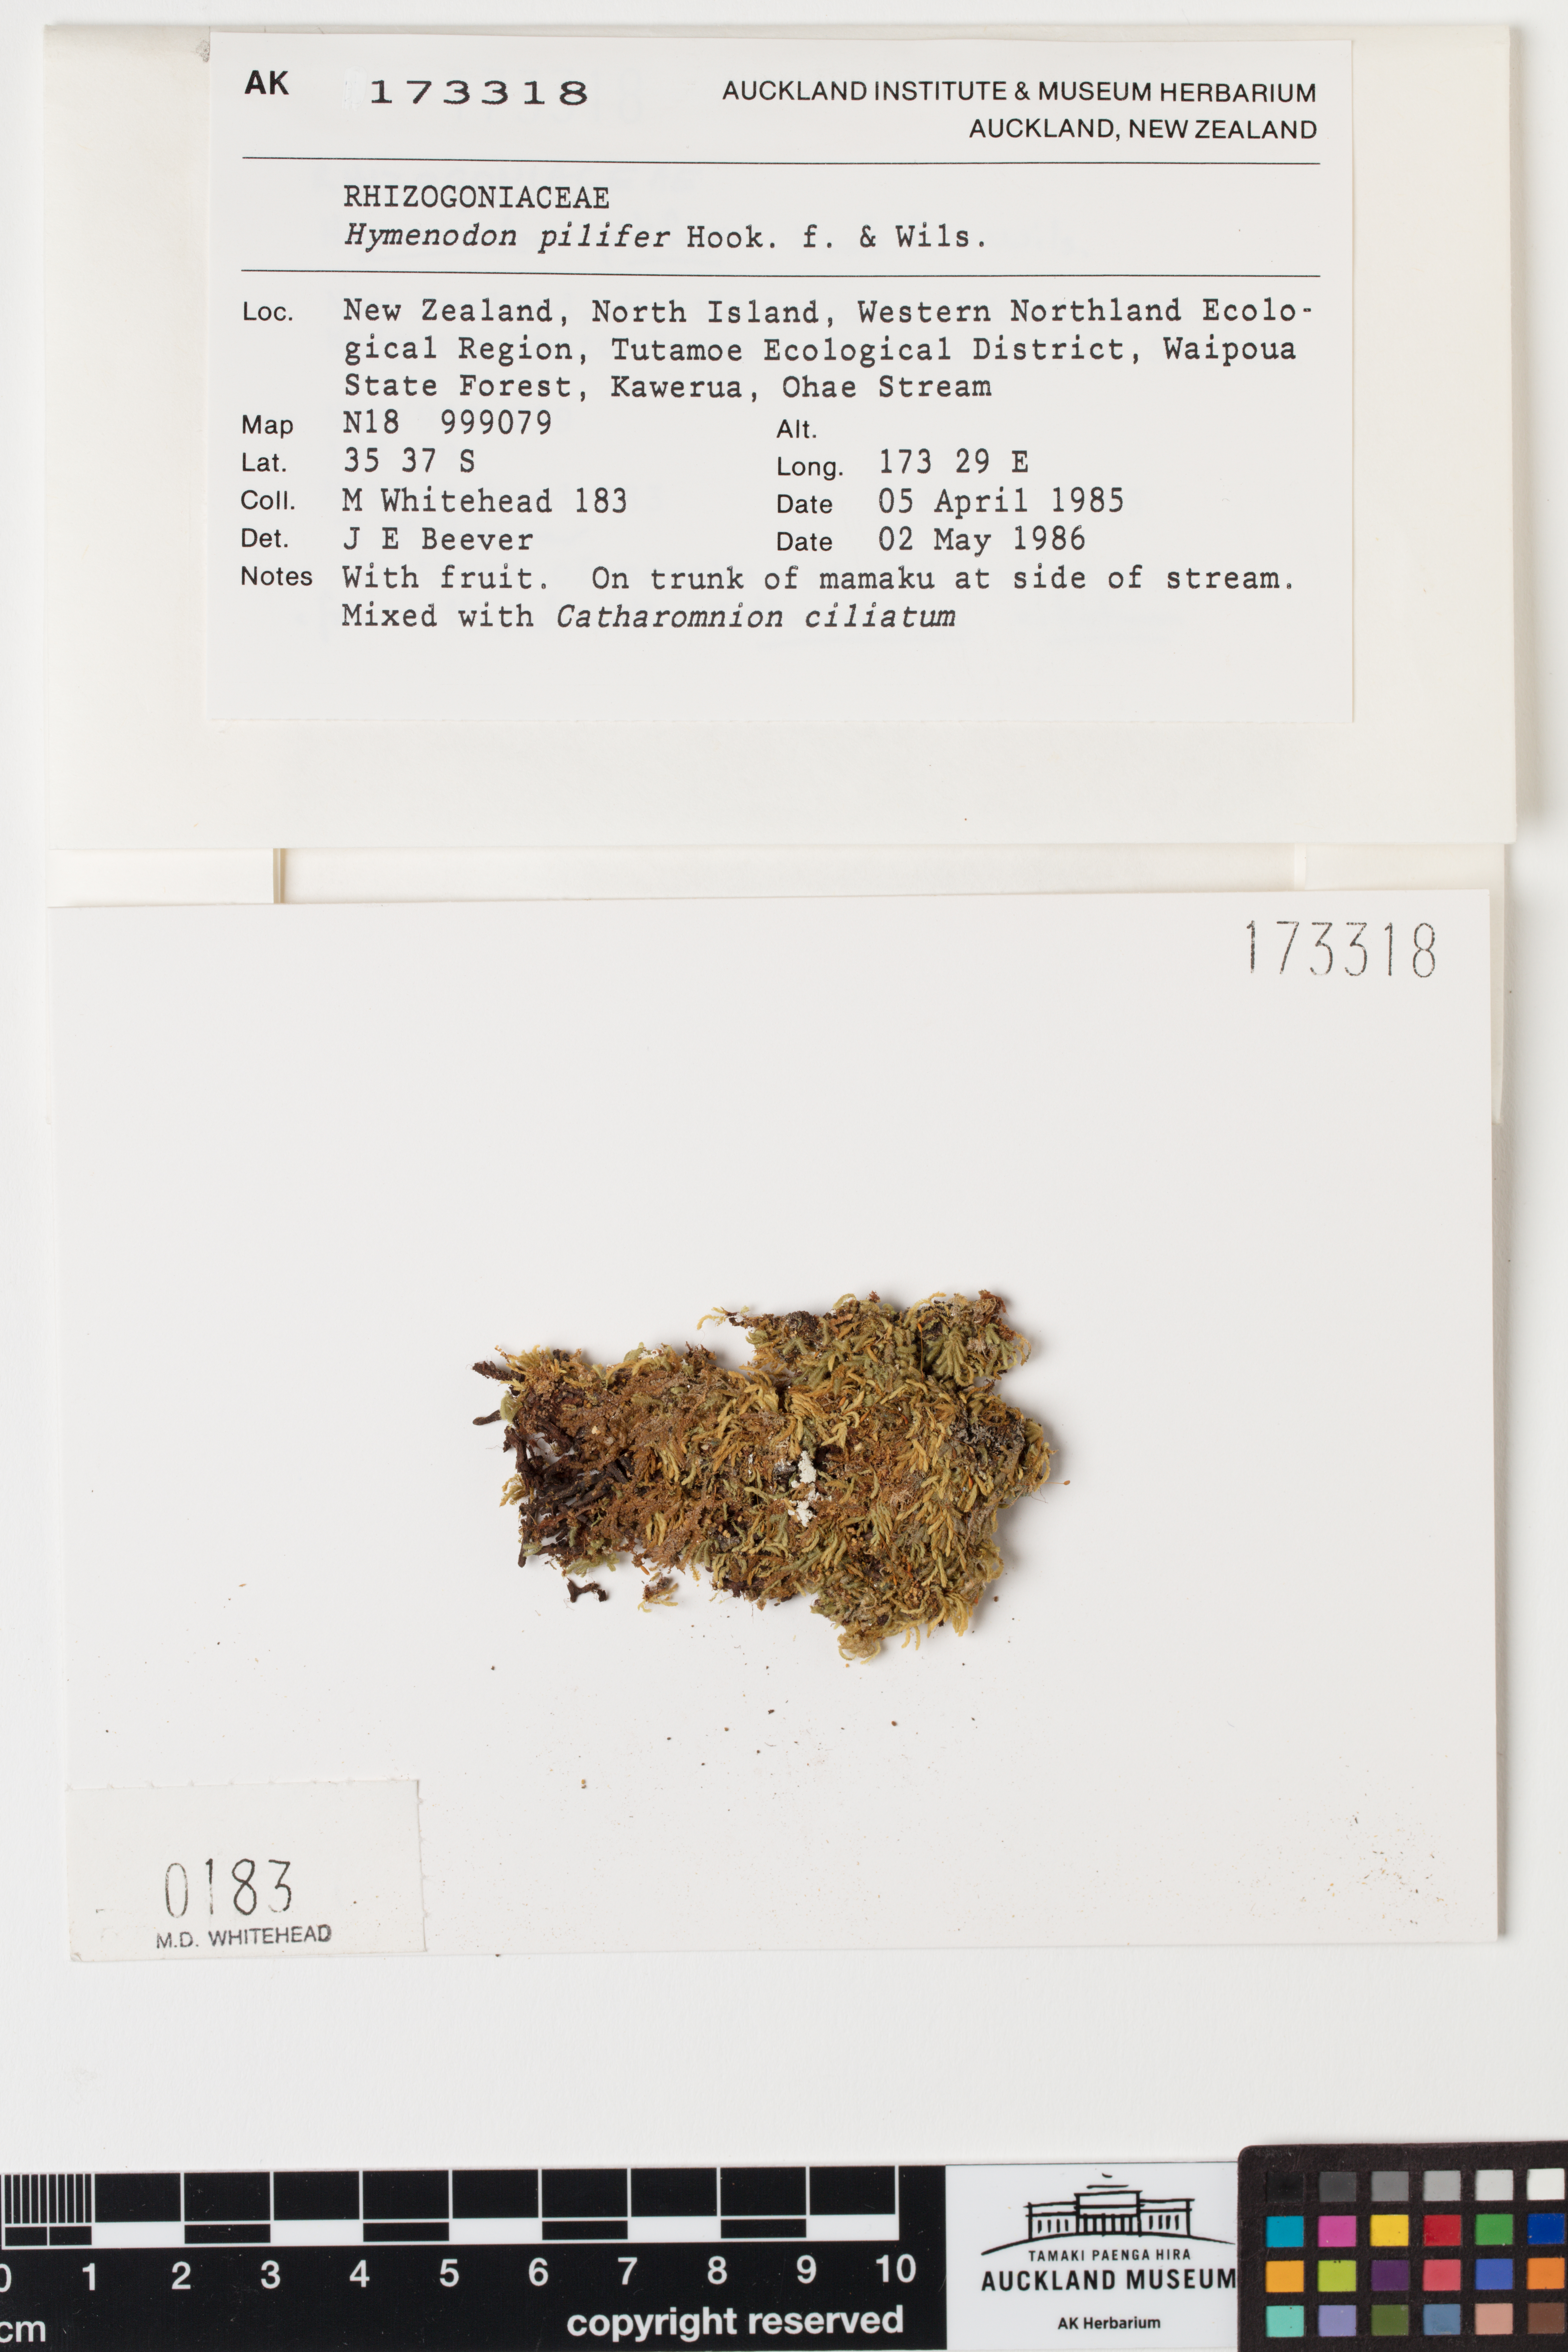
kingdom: Plantae
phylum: Bryophyta
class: Bryopsida
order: Orthodontiales
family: Orthodontiaceae
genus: Hymenodon
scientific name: Hymenodon pilifer
